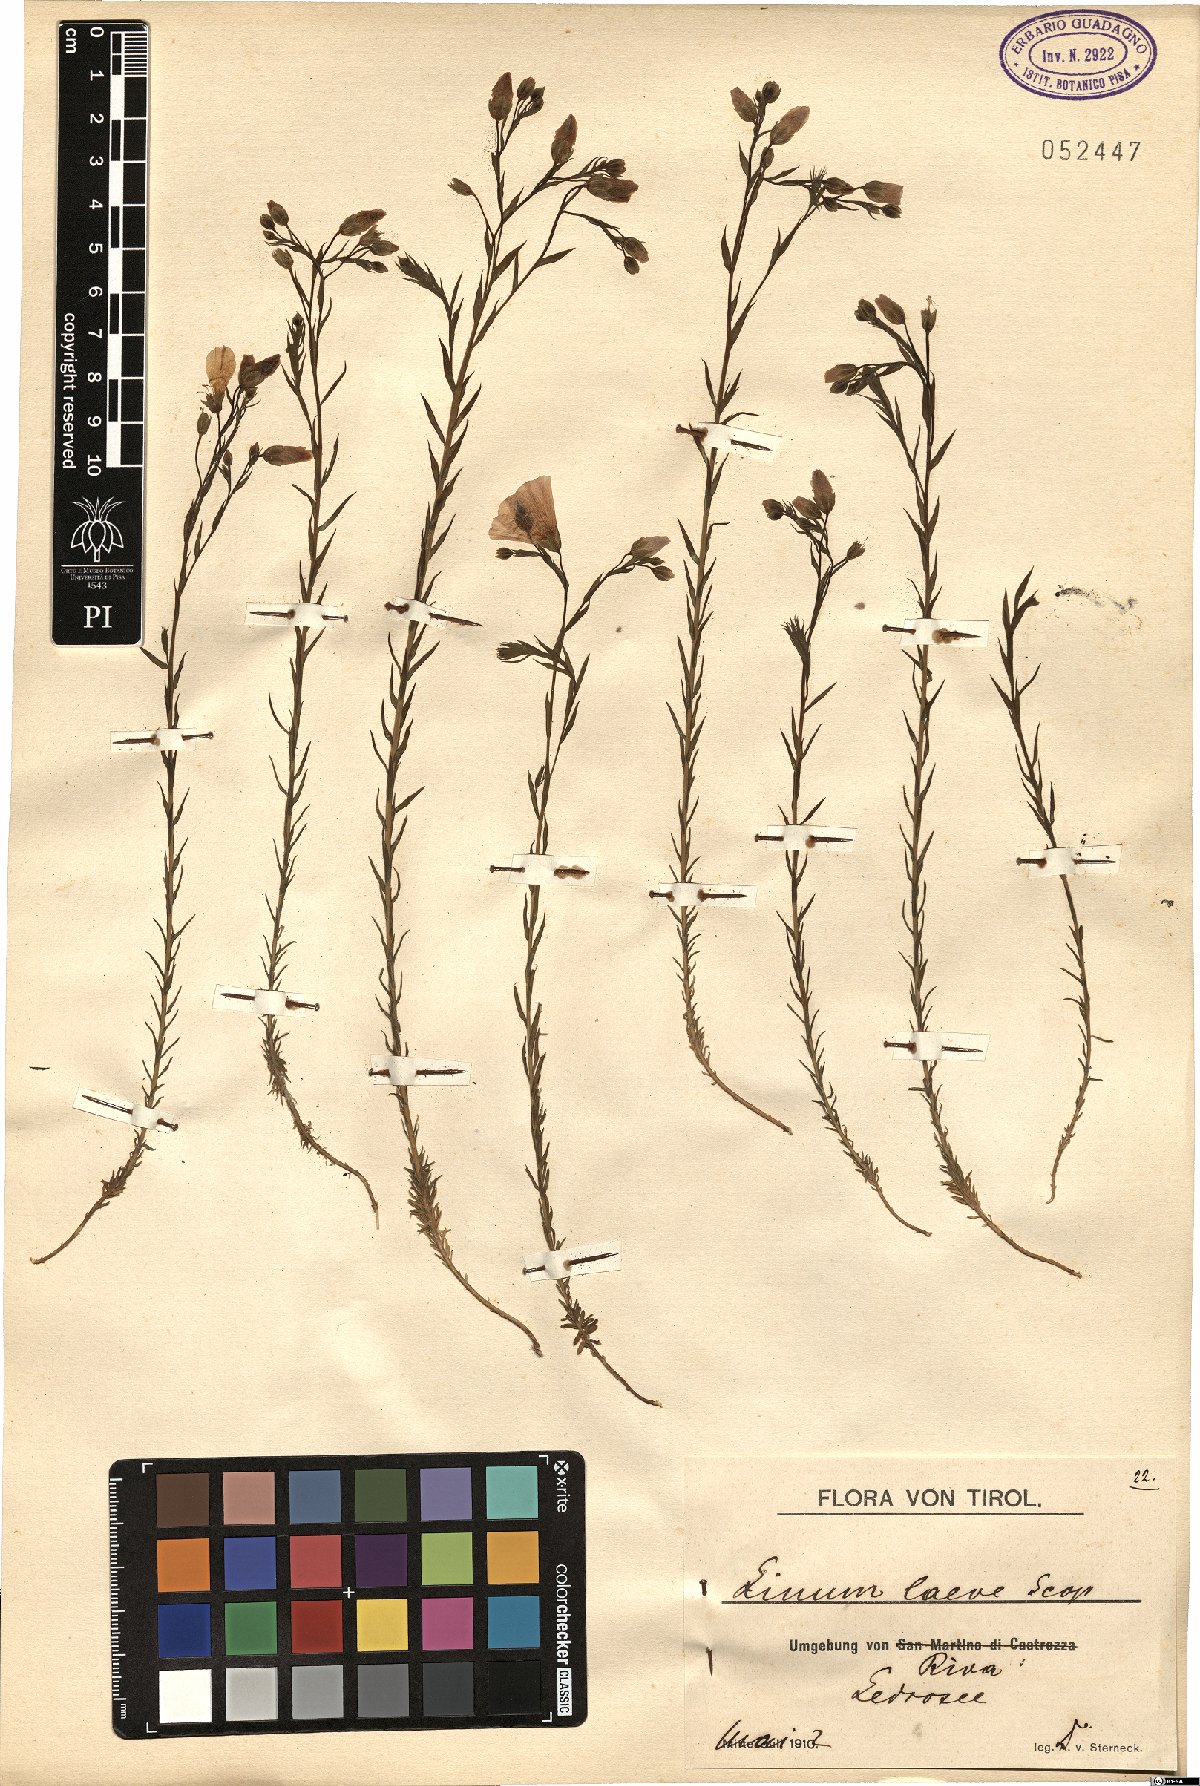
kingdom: Plantae
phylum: Tracheophyta
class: Magnoliopsida
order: Malpighiales
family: Linaceae
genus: Linum
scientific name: Linum alpinum
